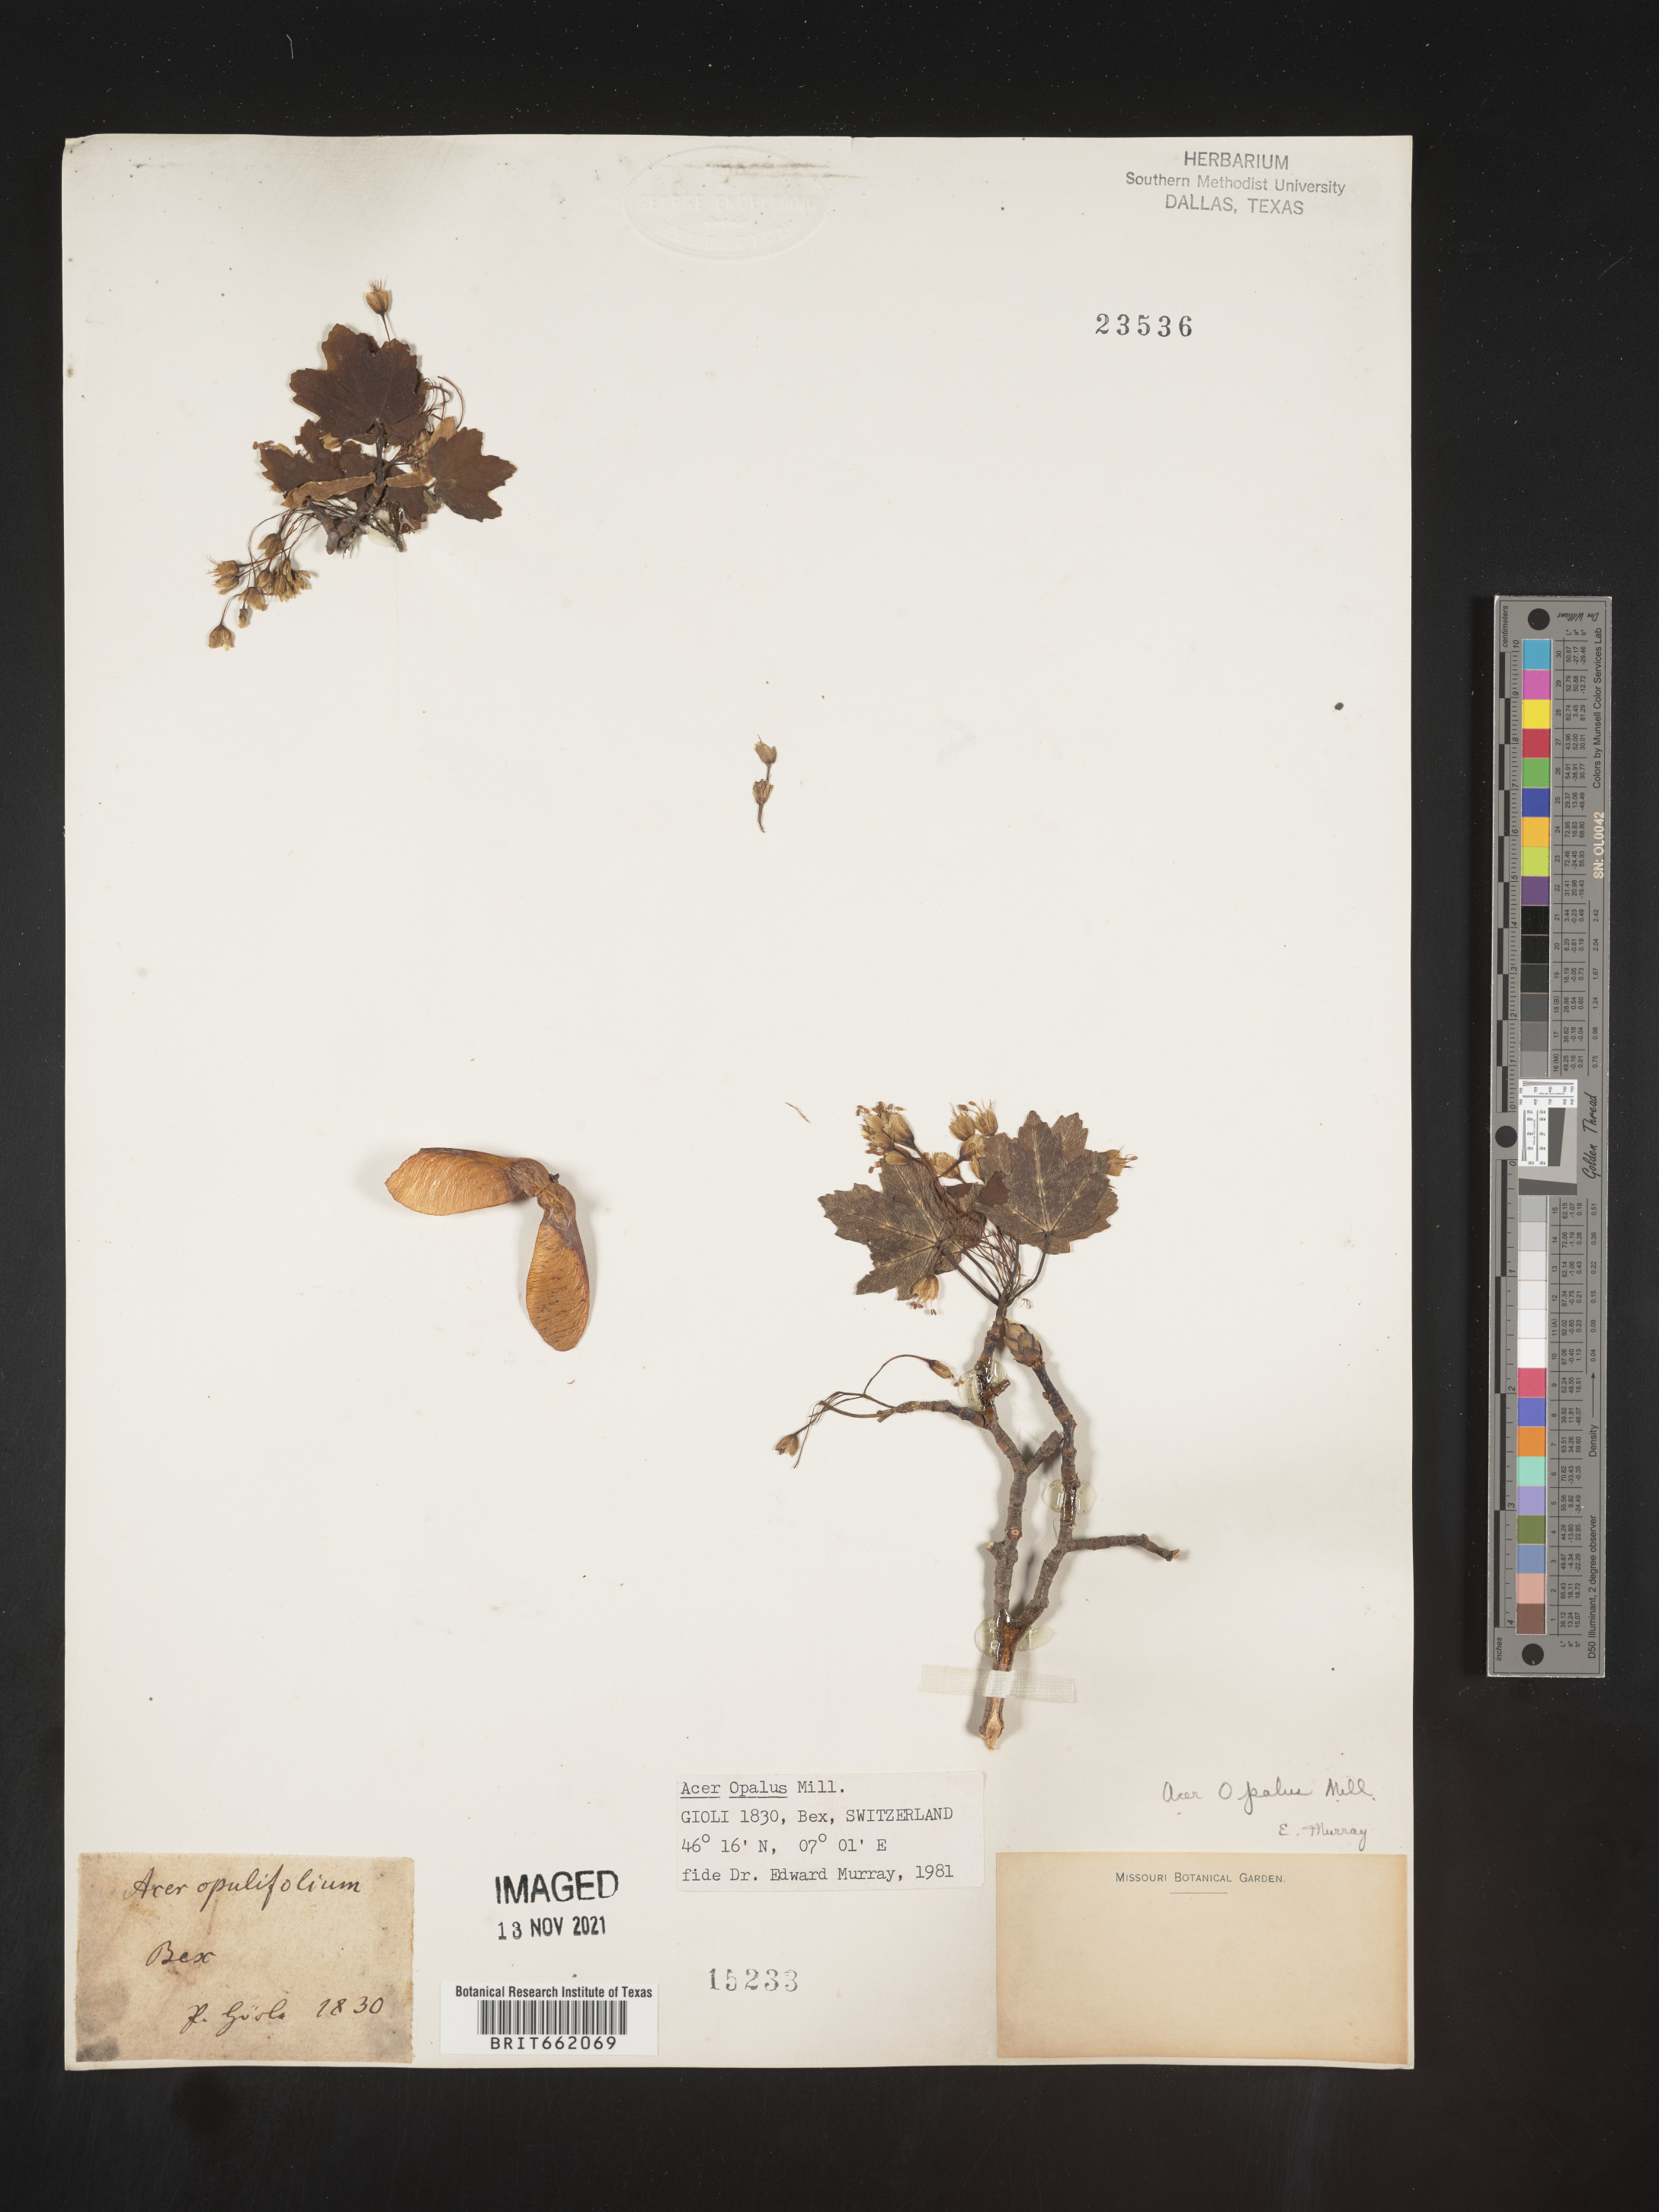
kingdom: Plantae
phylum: Tracheophyta
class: Magnoliopsida
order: Sapindales
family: Sapindaceae
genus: Acer
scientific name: Acer
